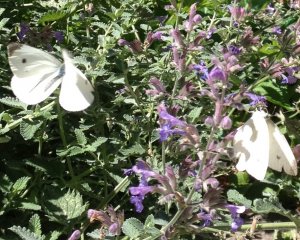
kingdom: Animalia
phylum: Arthropoda
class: Insecta
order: Lepidoptera
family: Pieridae
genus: Pieris
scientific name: Pieris rapae
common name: Cabbage White
